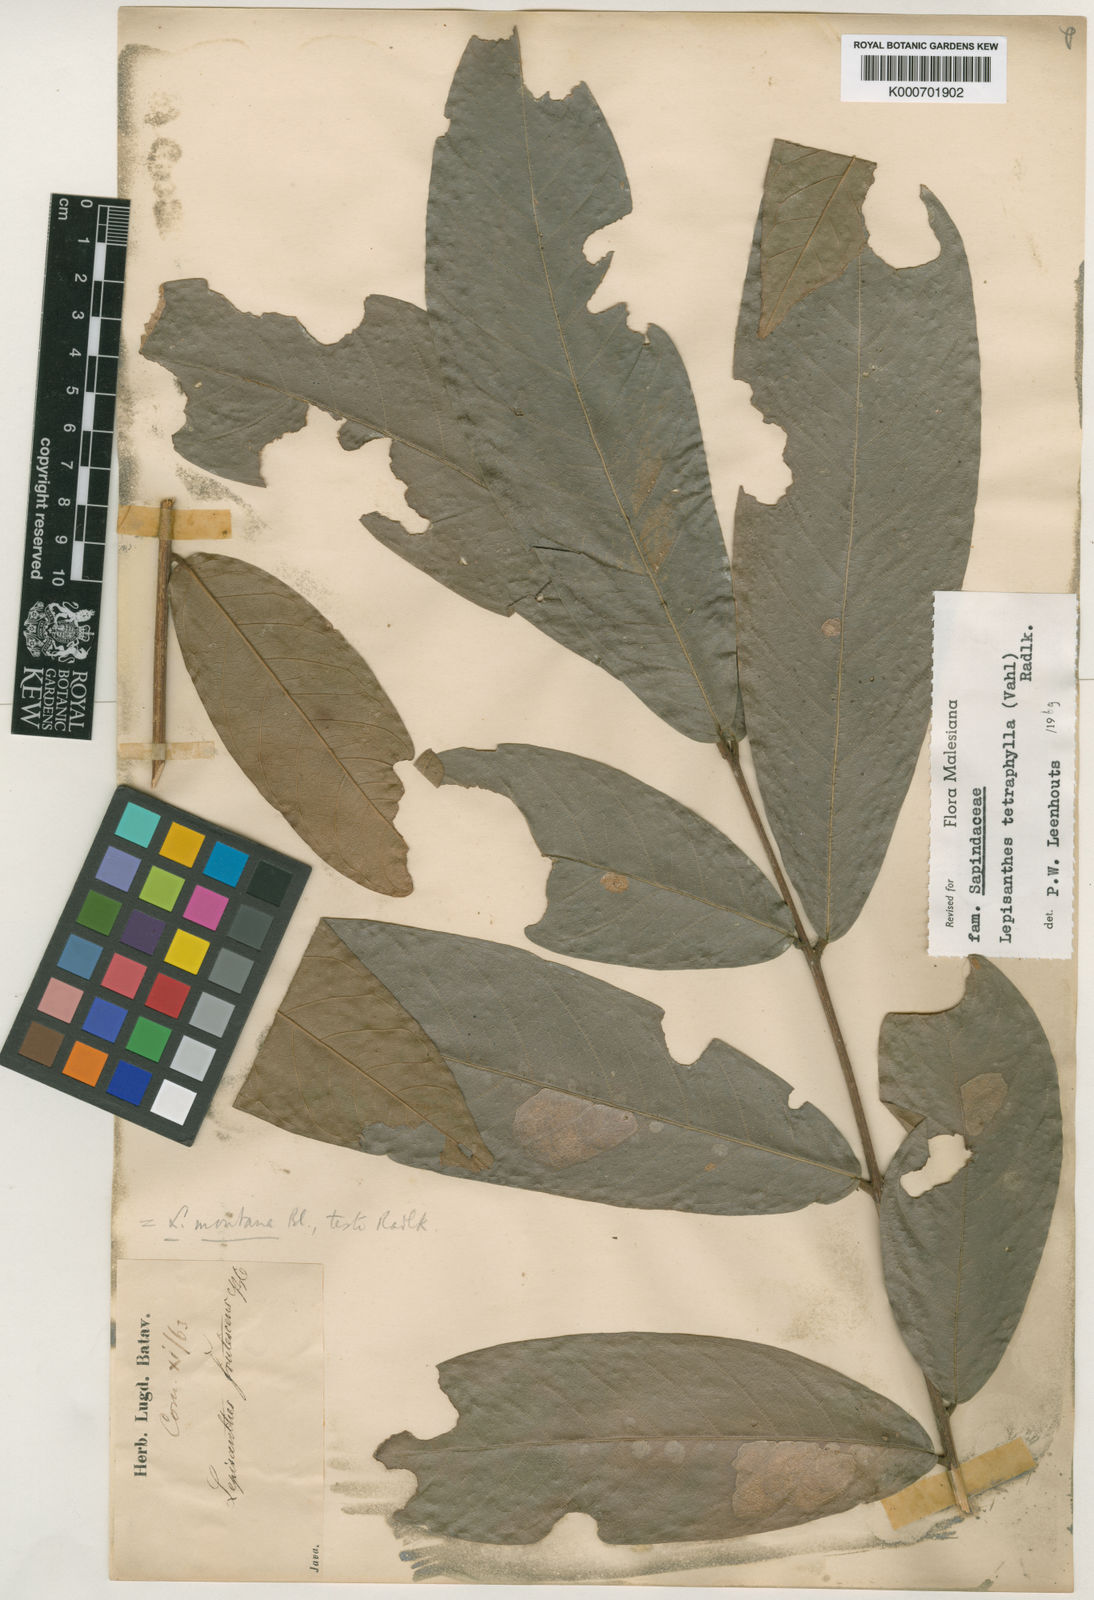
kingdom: Plantae
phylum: Tracheophyta
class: Magnoliopsida
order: Sapindales
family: Sapindaceae
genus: Lepisanthes
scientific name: Lepisanthes tetraphylla
